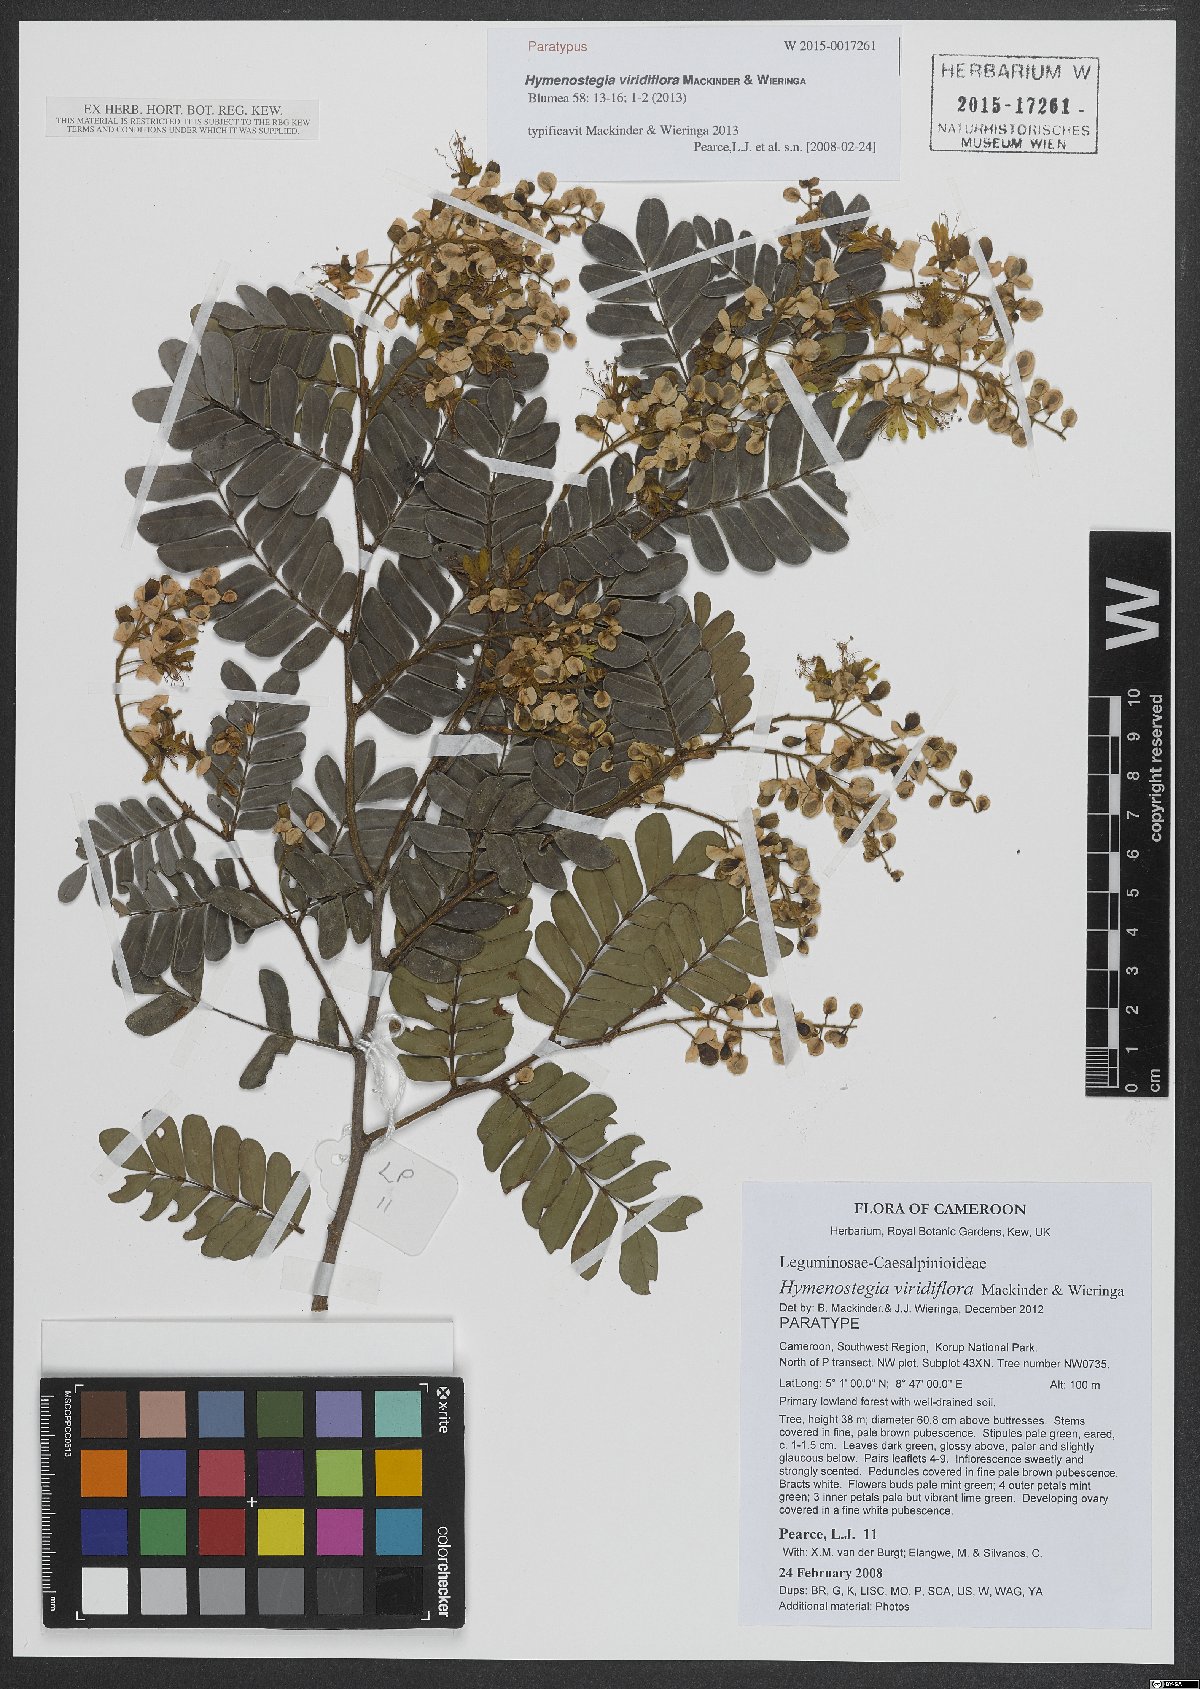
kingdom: Plantae
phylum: Tracheophyta
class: Magnoliopsida
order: Fabales
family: Fabaceae
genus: Hymenostegia
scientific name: Hymenostegia viridiflora
